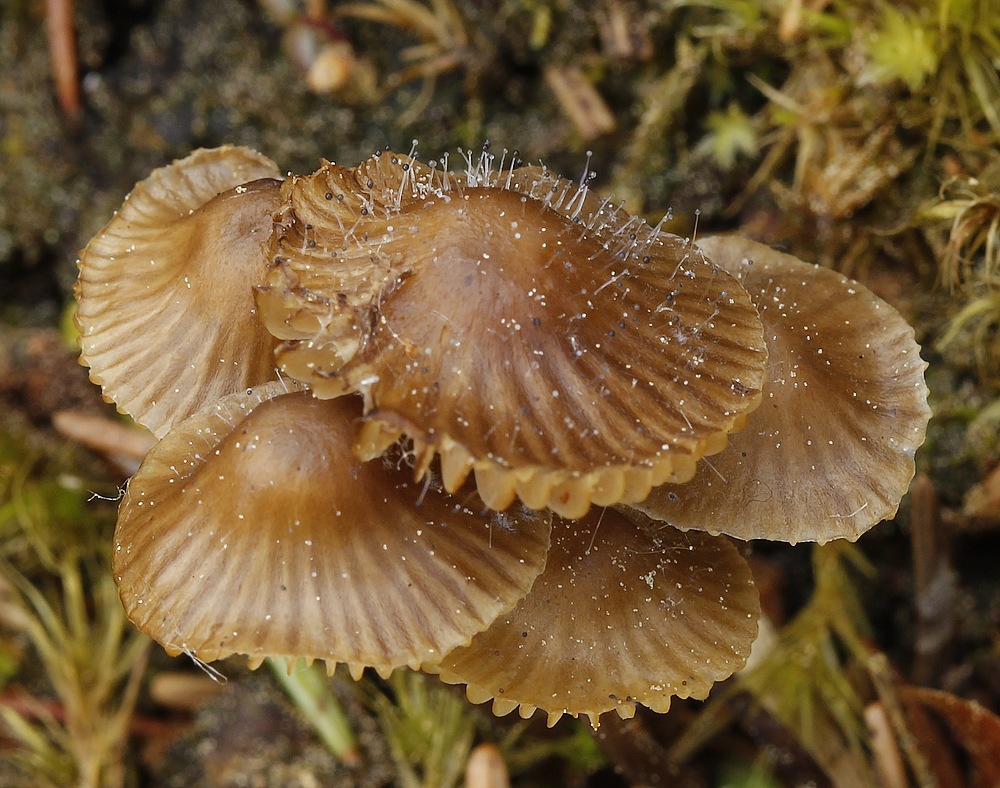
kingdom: Fungi
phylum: Mucoromycota
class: Mucoromycetes
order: Mucorales
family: Phycomycetaceae
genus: Spinellus
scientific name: Spinellus fusiger
